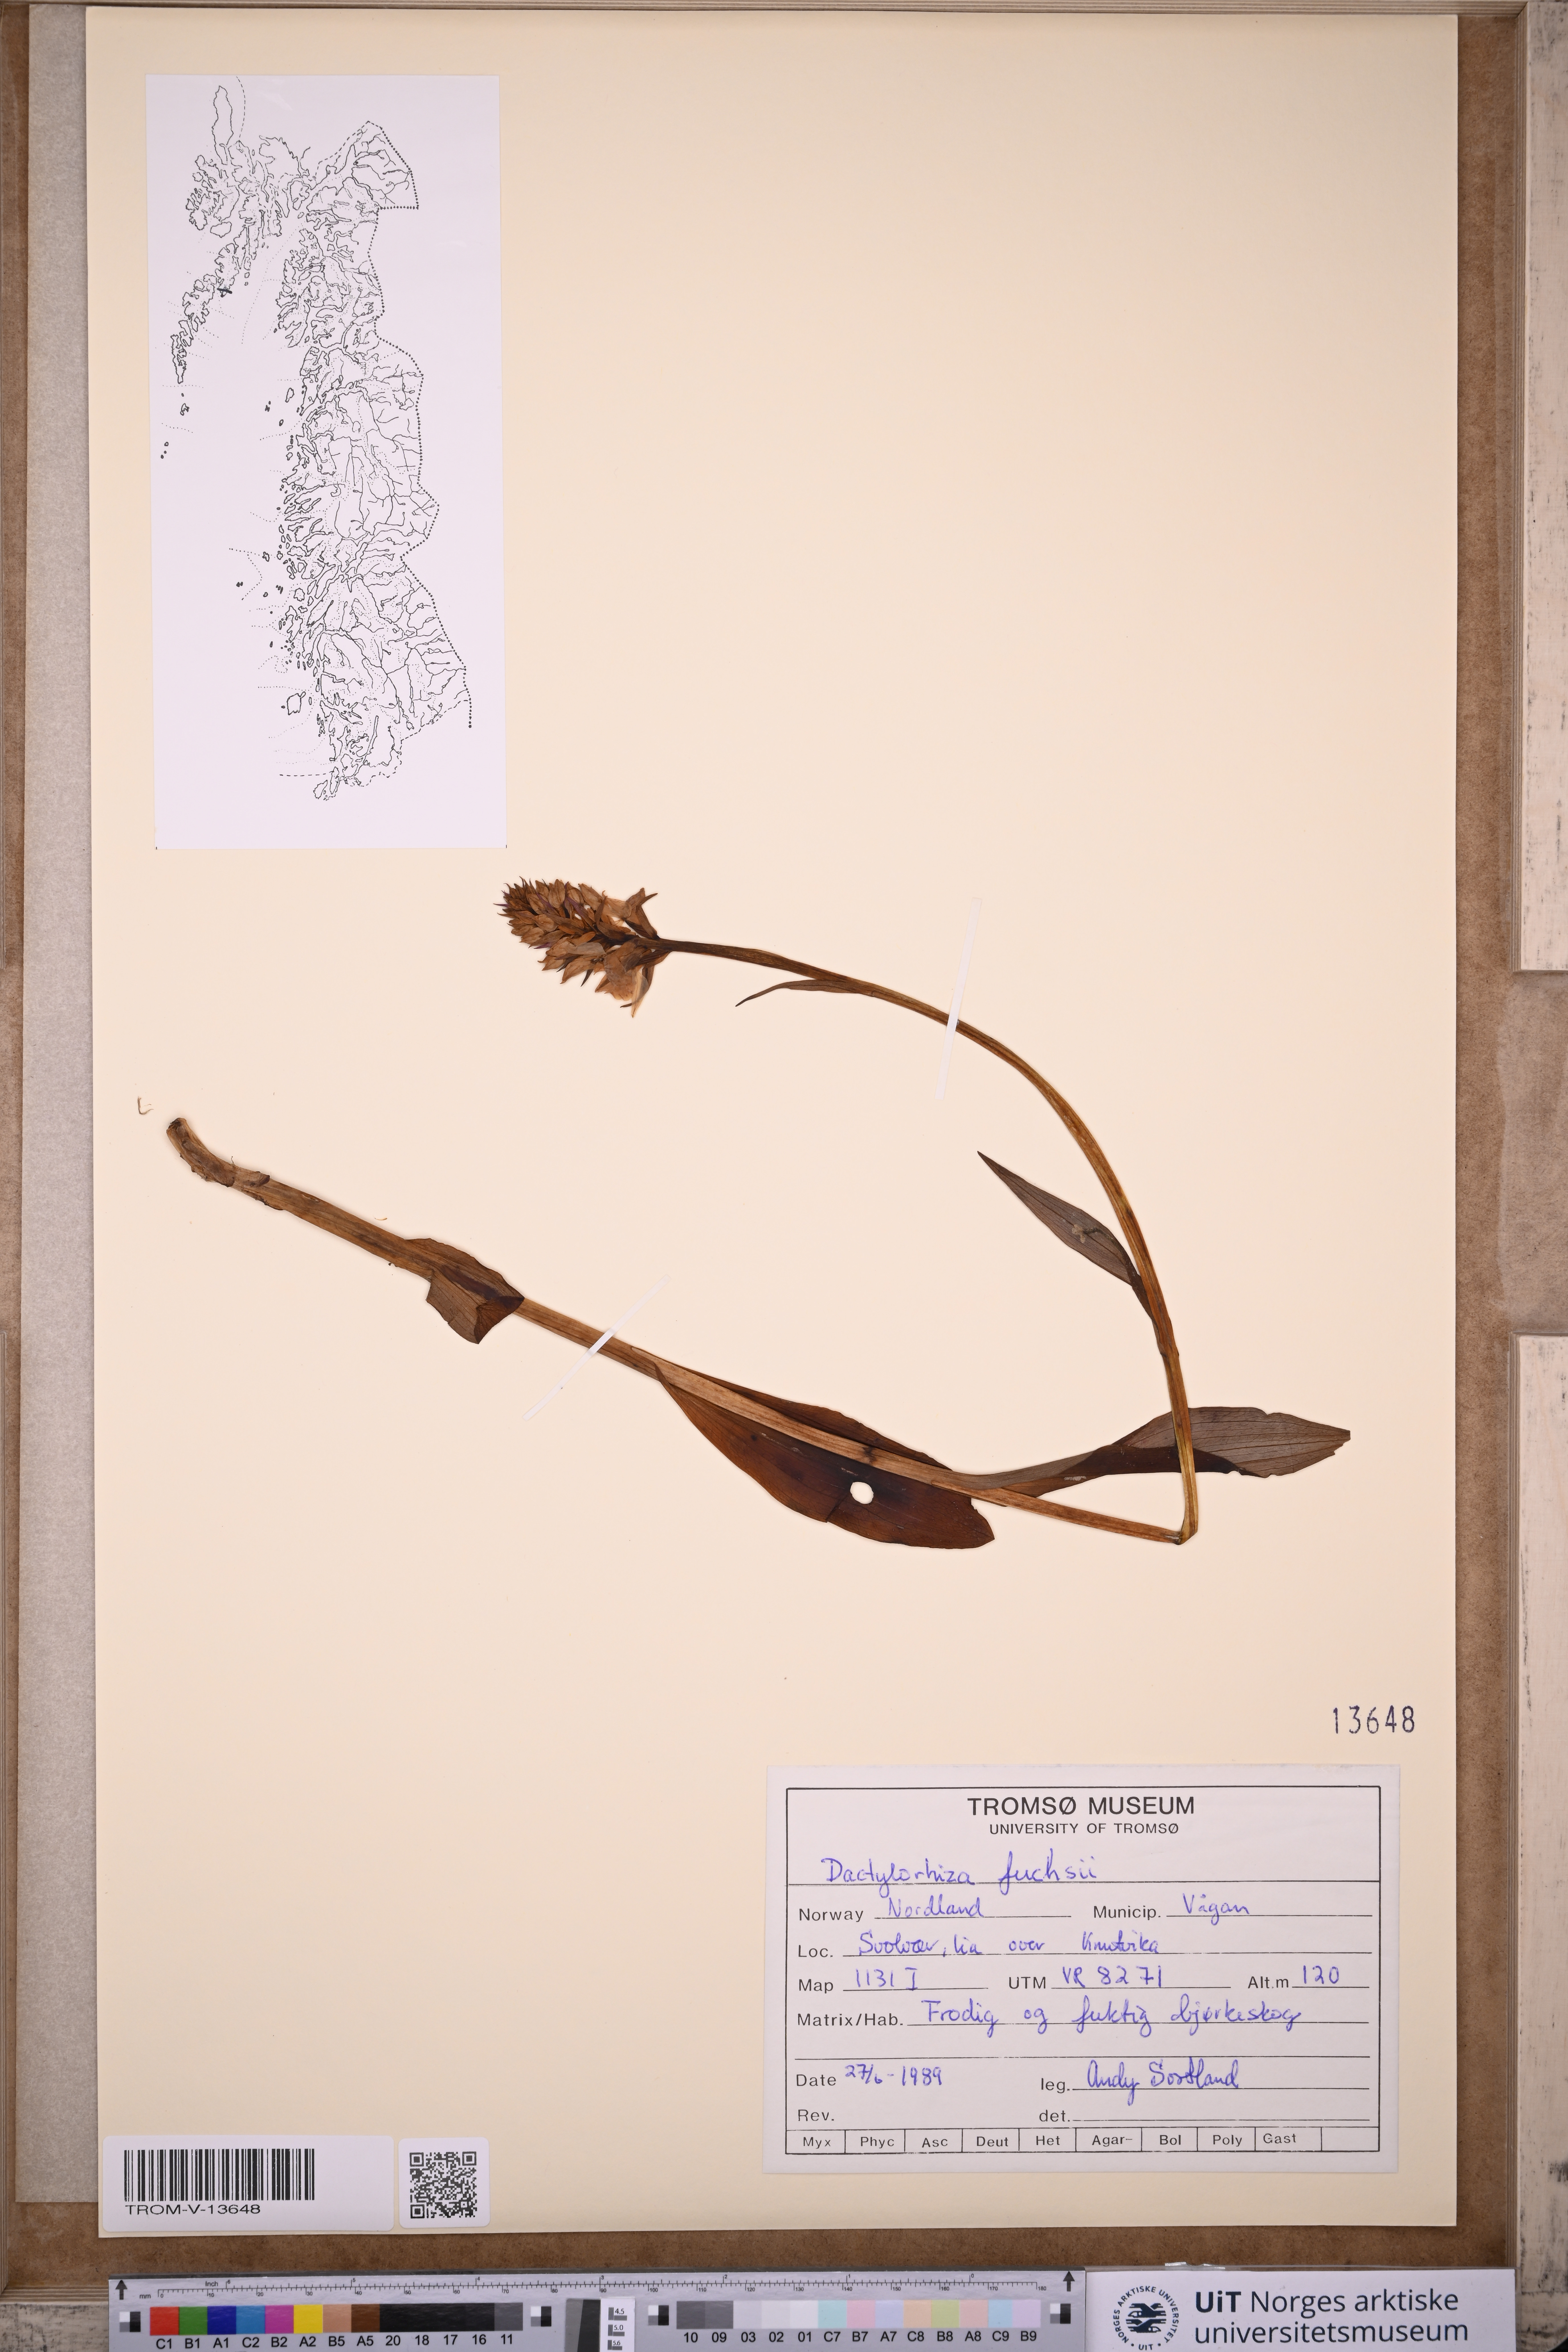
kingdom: Plantae
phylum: Tracheophyta
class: Liliopsida
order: Asparagales
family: Orchidaceae
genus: Dactylorhiza
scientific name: Dactylorhiza maculata
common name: Heath spotted-orchid
